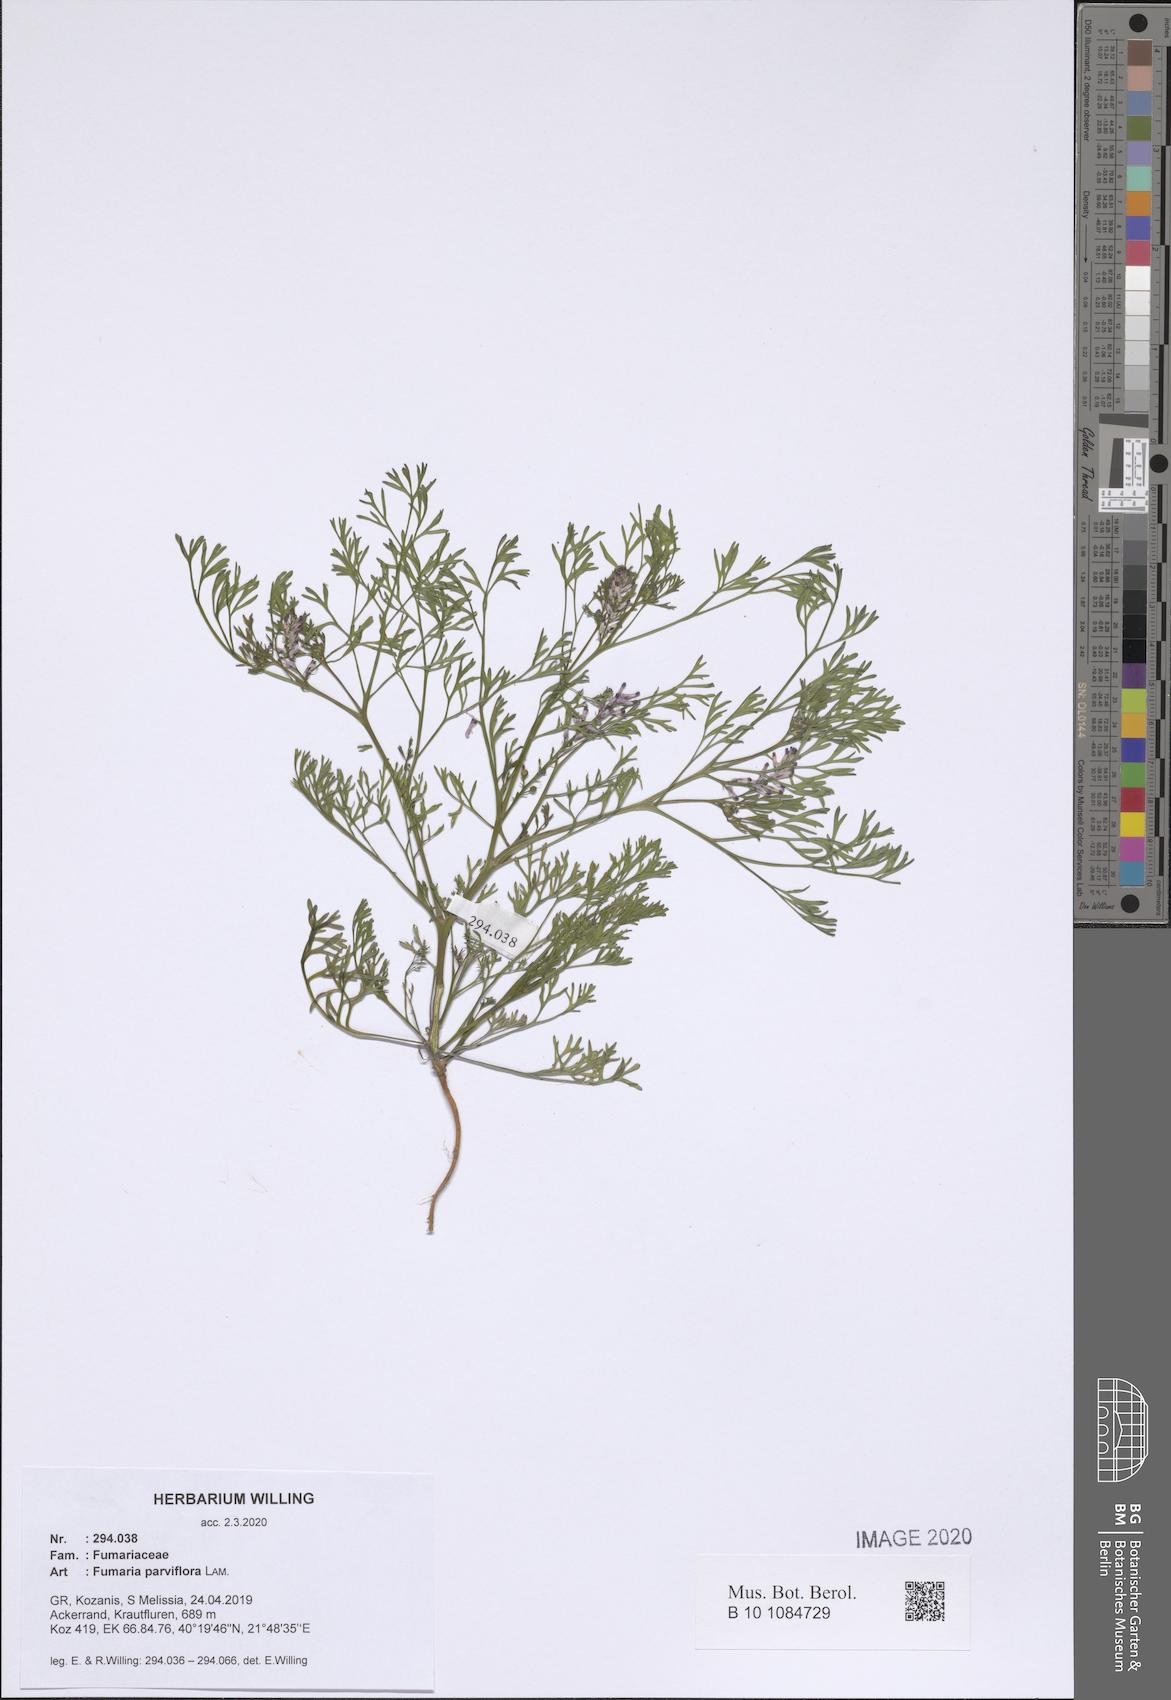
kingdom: Plantae
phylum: Tracheophyta
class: Magnoliopsida
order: Ranunculales
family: Papaveraceae
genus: Fumaria
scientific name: Fumaria parviflora
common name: Fine-leaved fumitory
